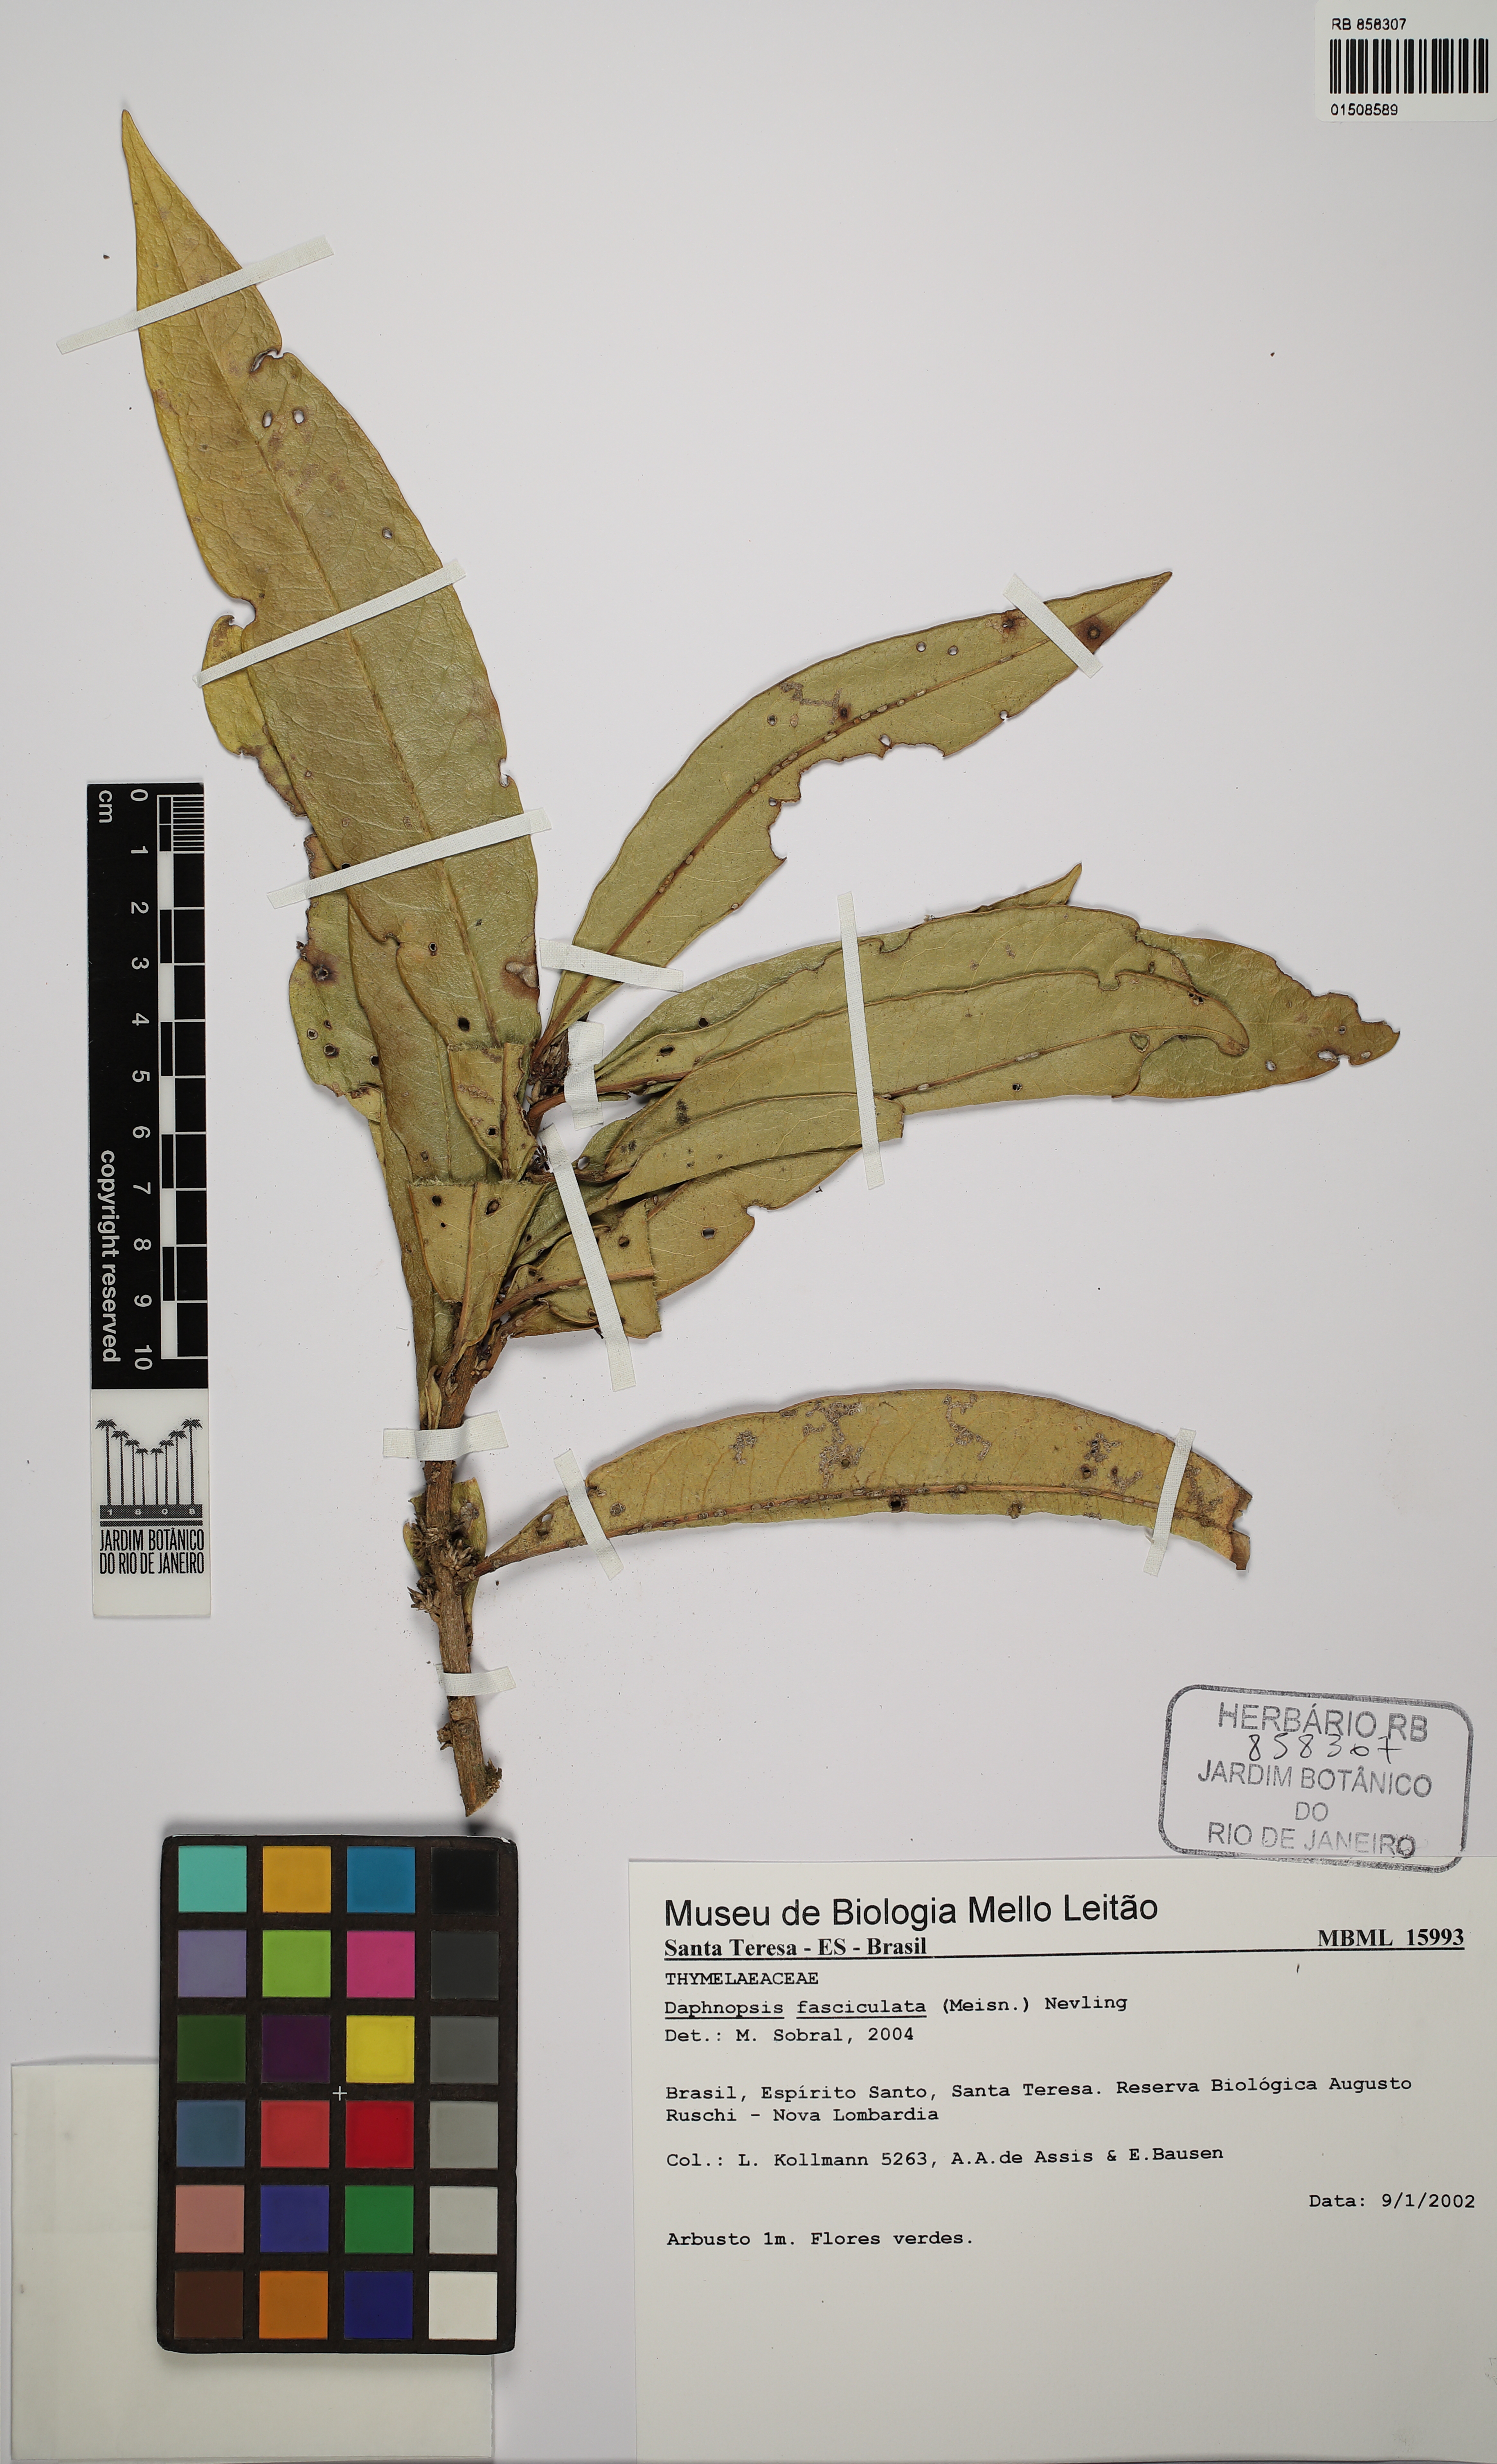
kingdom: Plantae
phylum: Tracheophyta
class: Magnoliopsida
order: Malvales
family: Thymelaeaceae
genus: Daphnopsis
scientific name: Daphnopsis fasciculata
